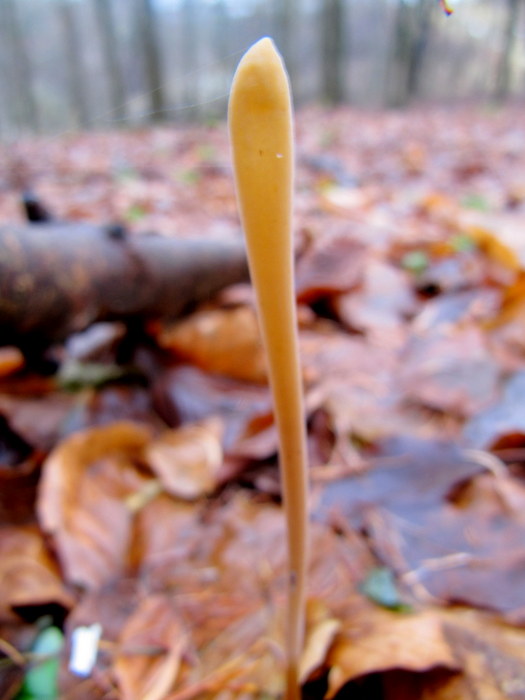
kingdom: Fungi
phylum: Basidiomycota
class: Agaricomycetes
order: Agaricales
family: Typhulaceae
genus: Typhula
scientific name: Typhula fistulosa
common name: pibet rørkølle
